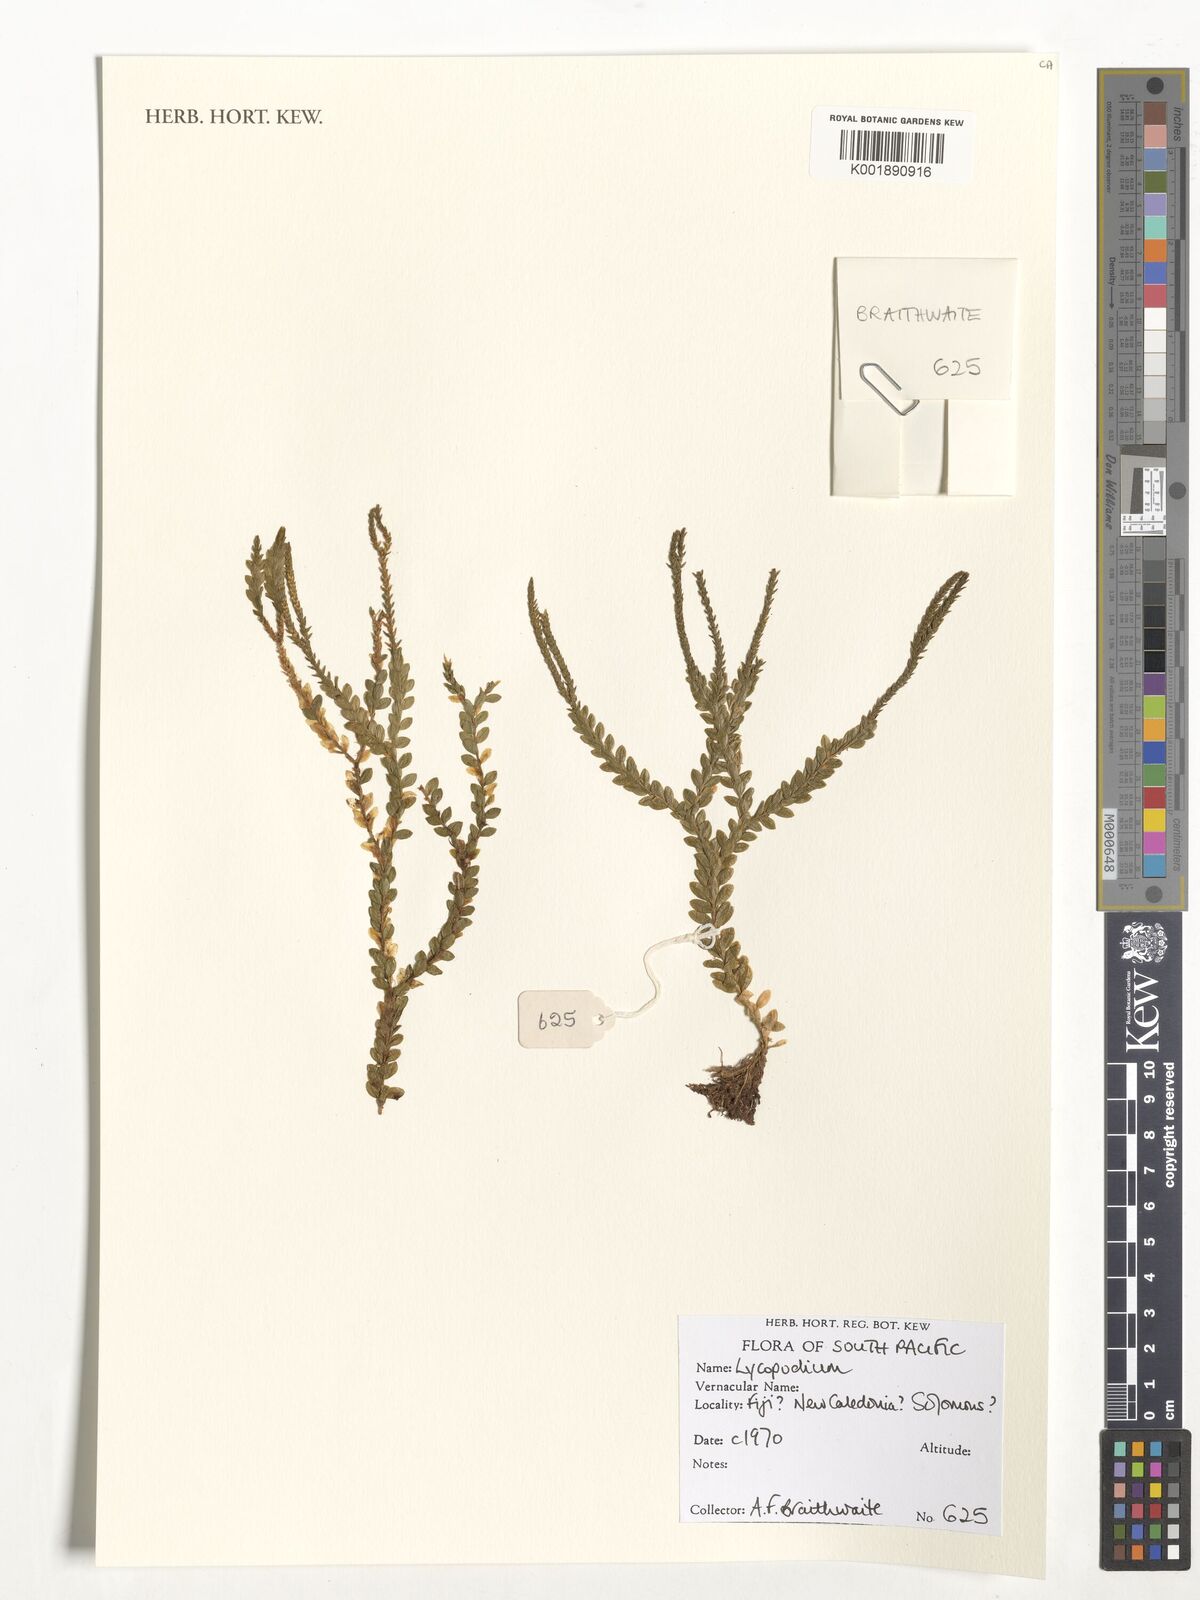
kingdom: Plantae
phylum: Tracheophyta
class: Lycopodiopsida
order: Lycopodiales
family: Lycopodiaceae
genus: Lycopodium
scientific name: Lycopodium
